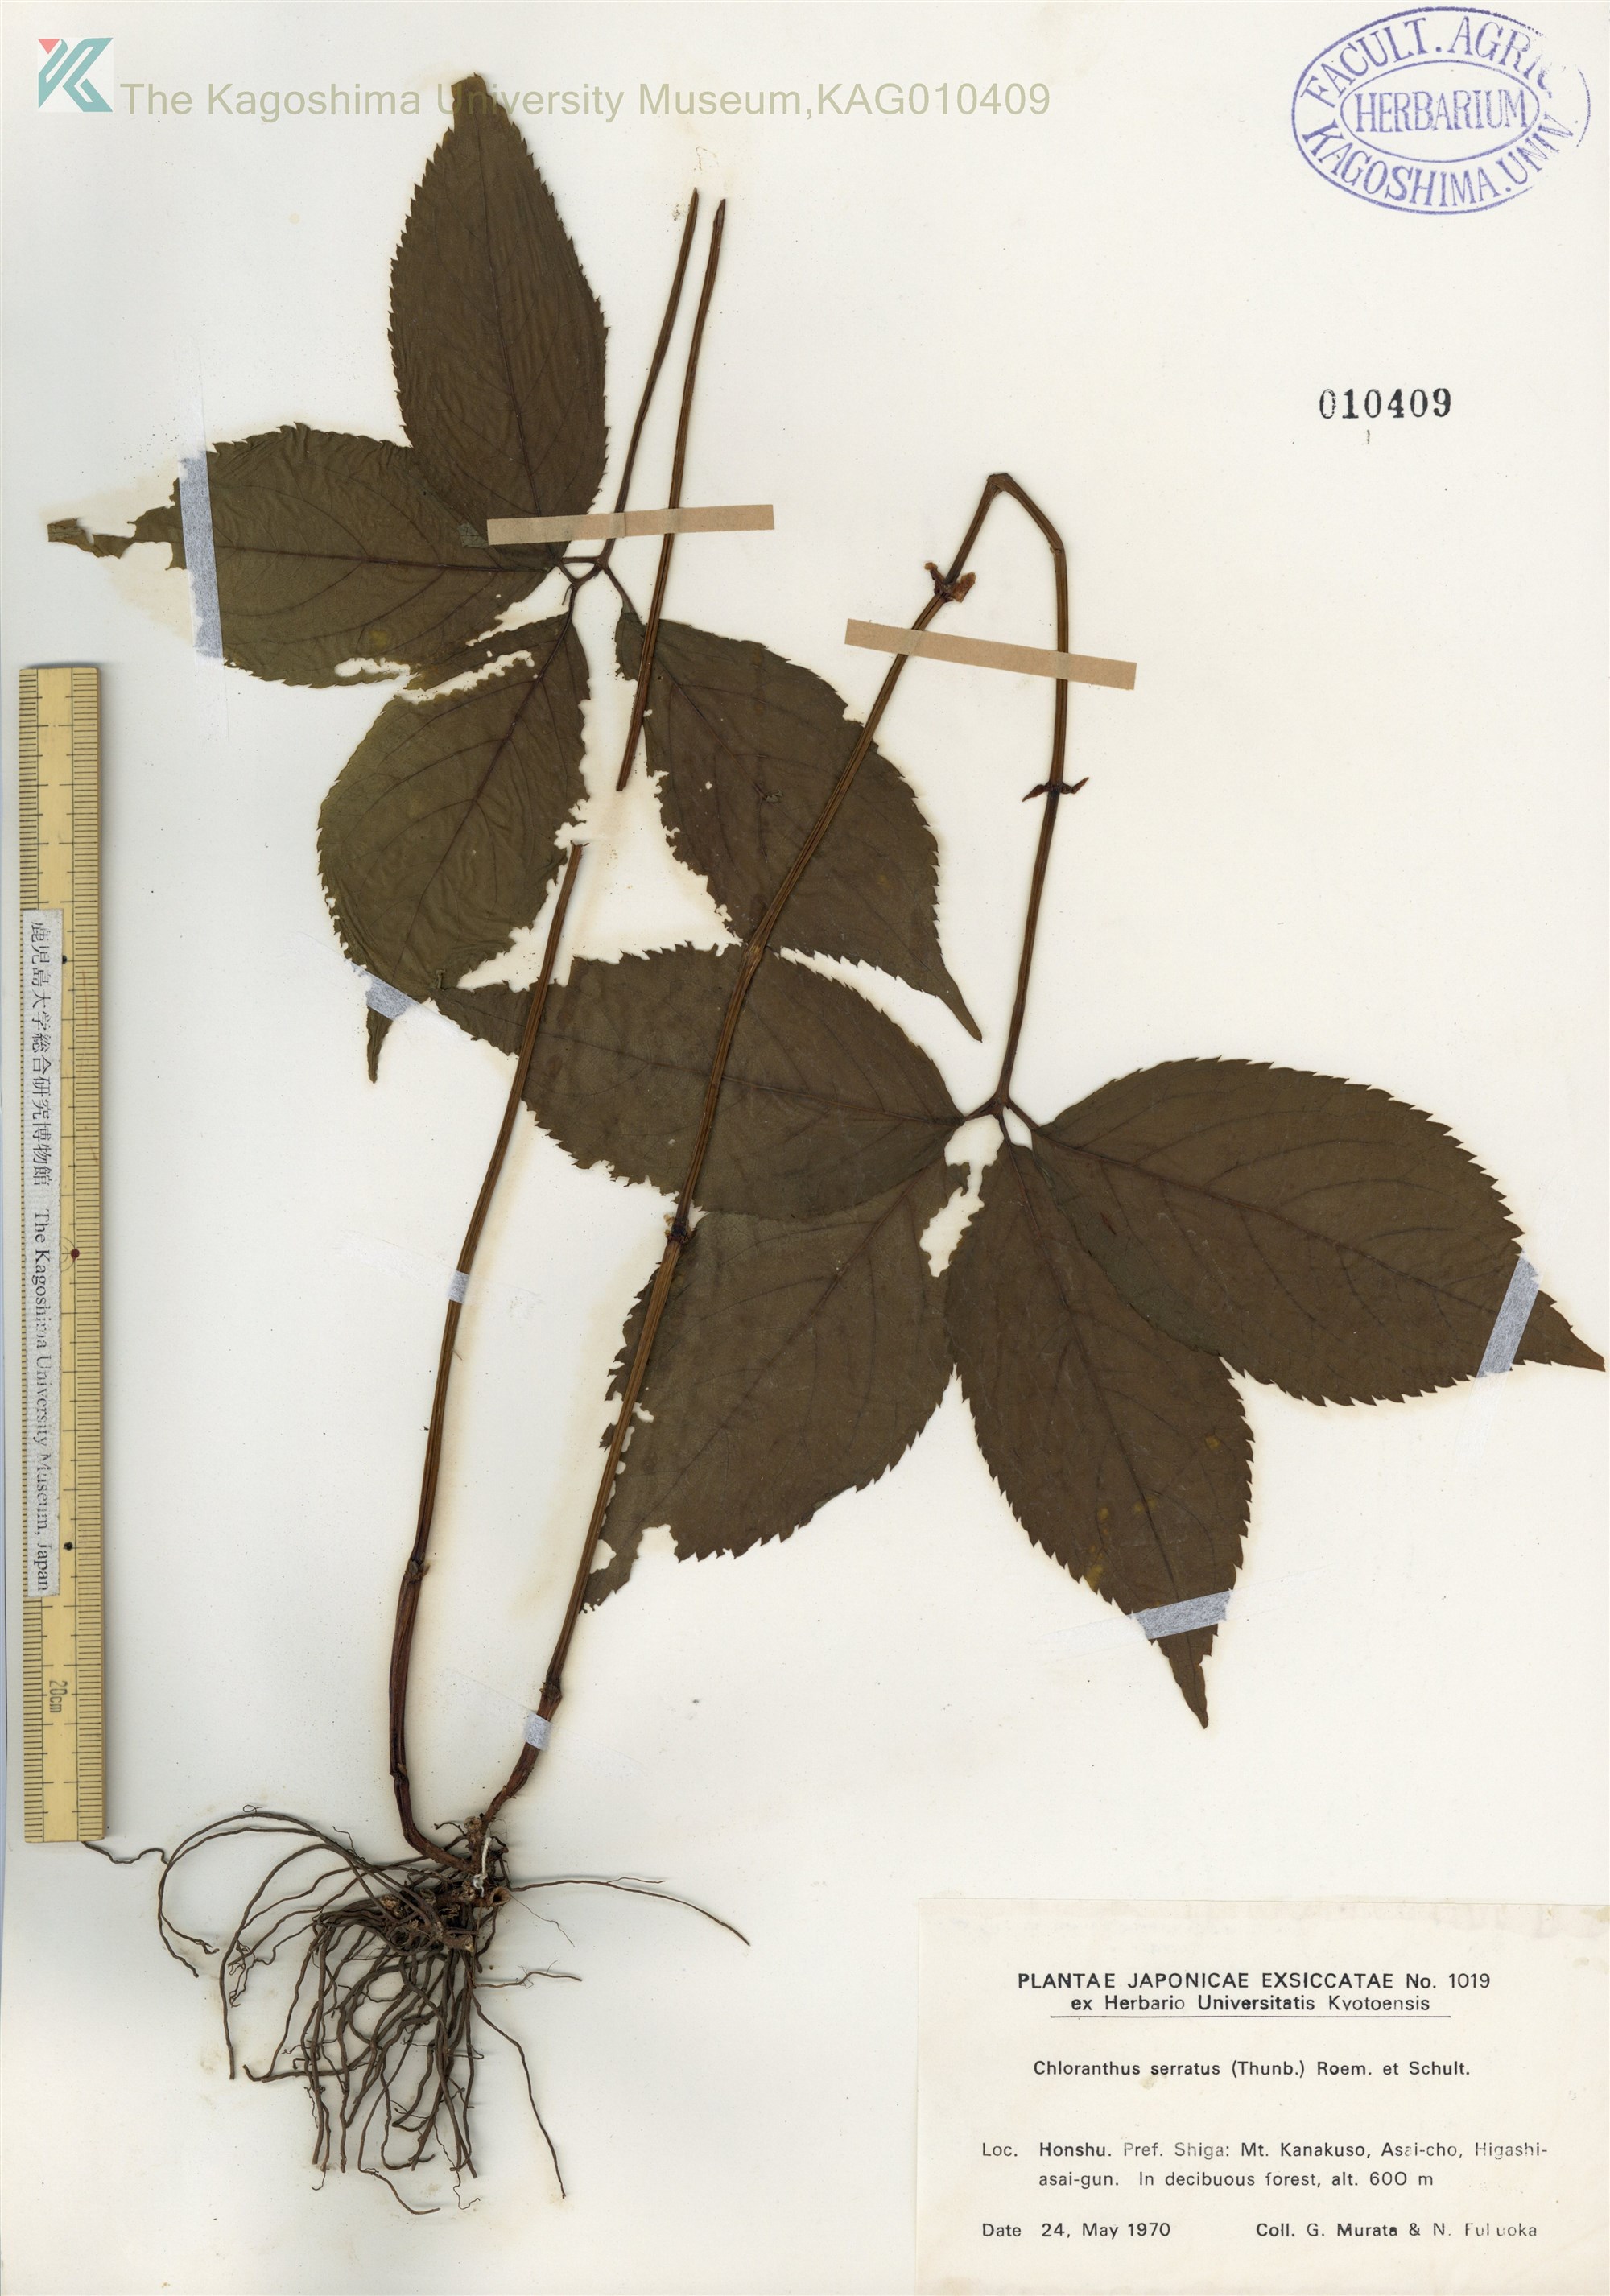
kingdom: Plantae
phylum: Tracheophyta
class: Magnoliopsida
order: Chloranthales
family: Chloranthaceae
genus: Chloranthus
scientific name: Chloranthus serratus
